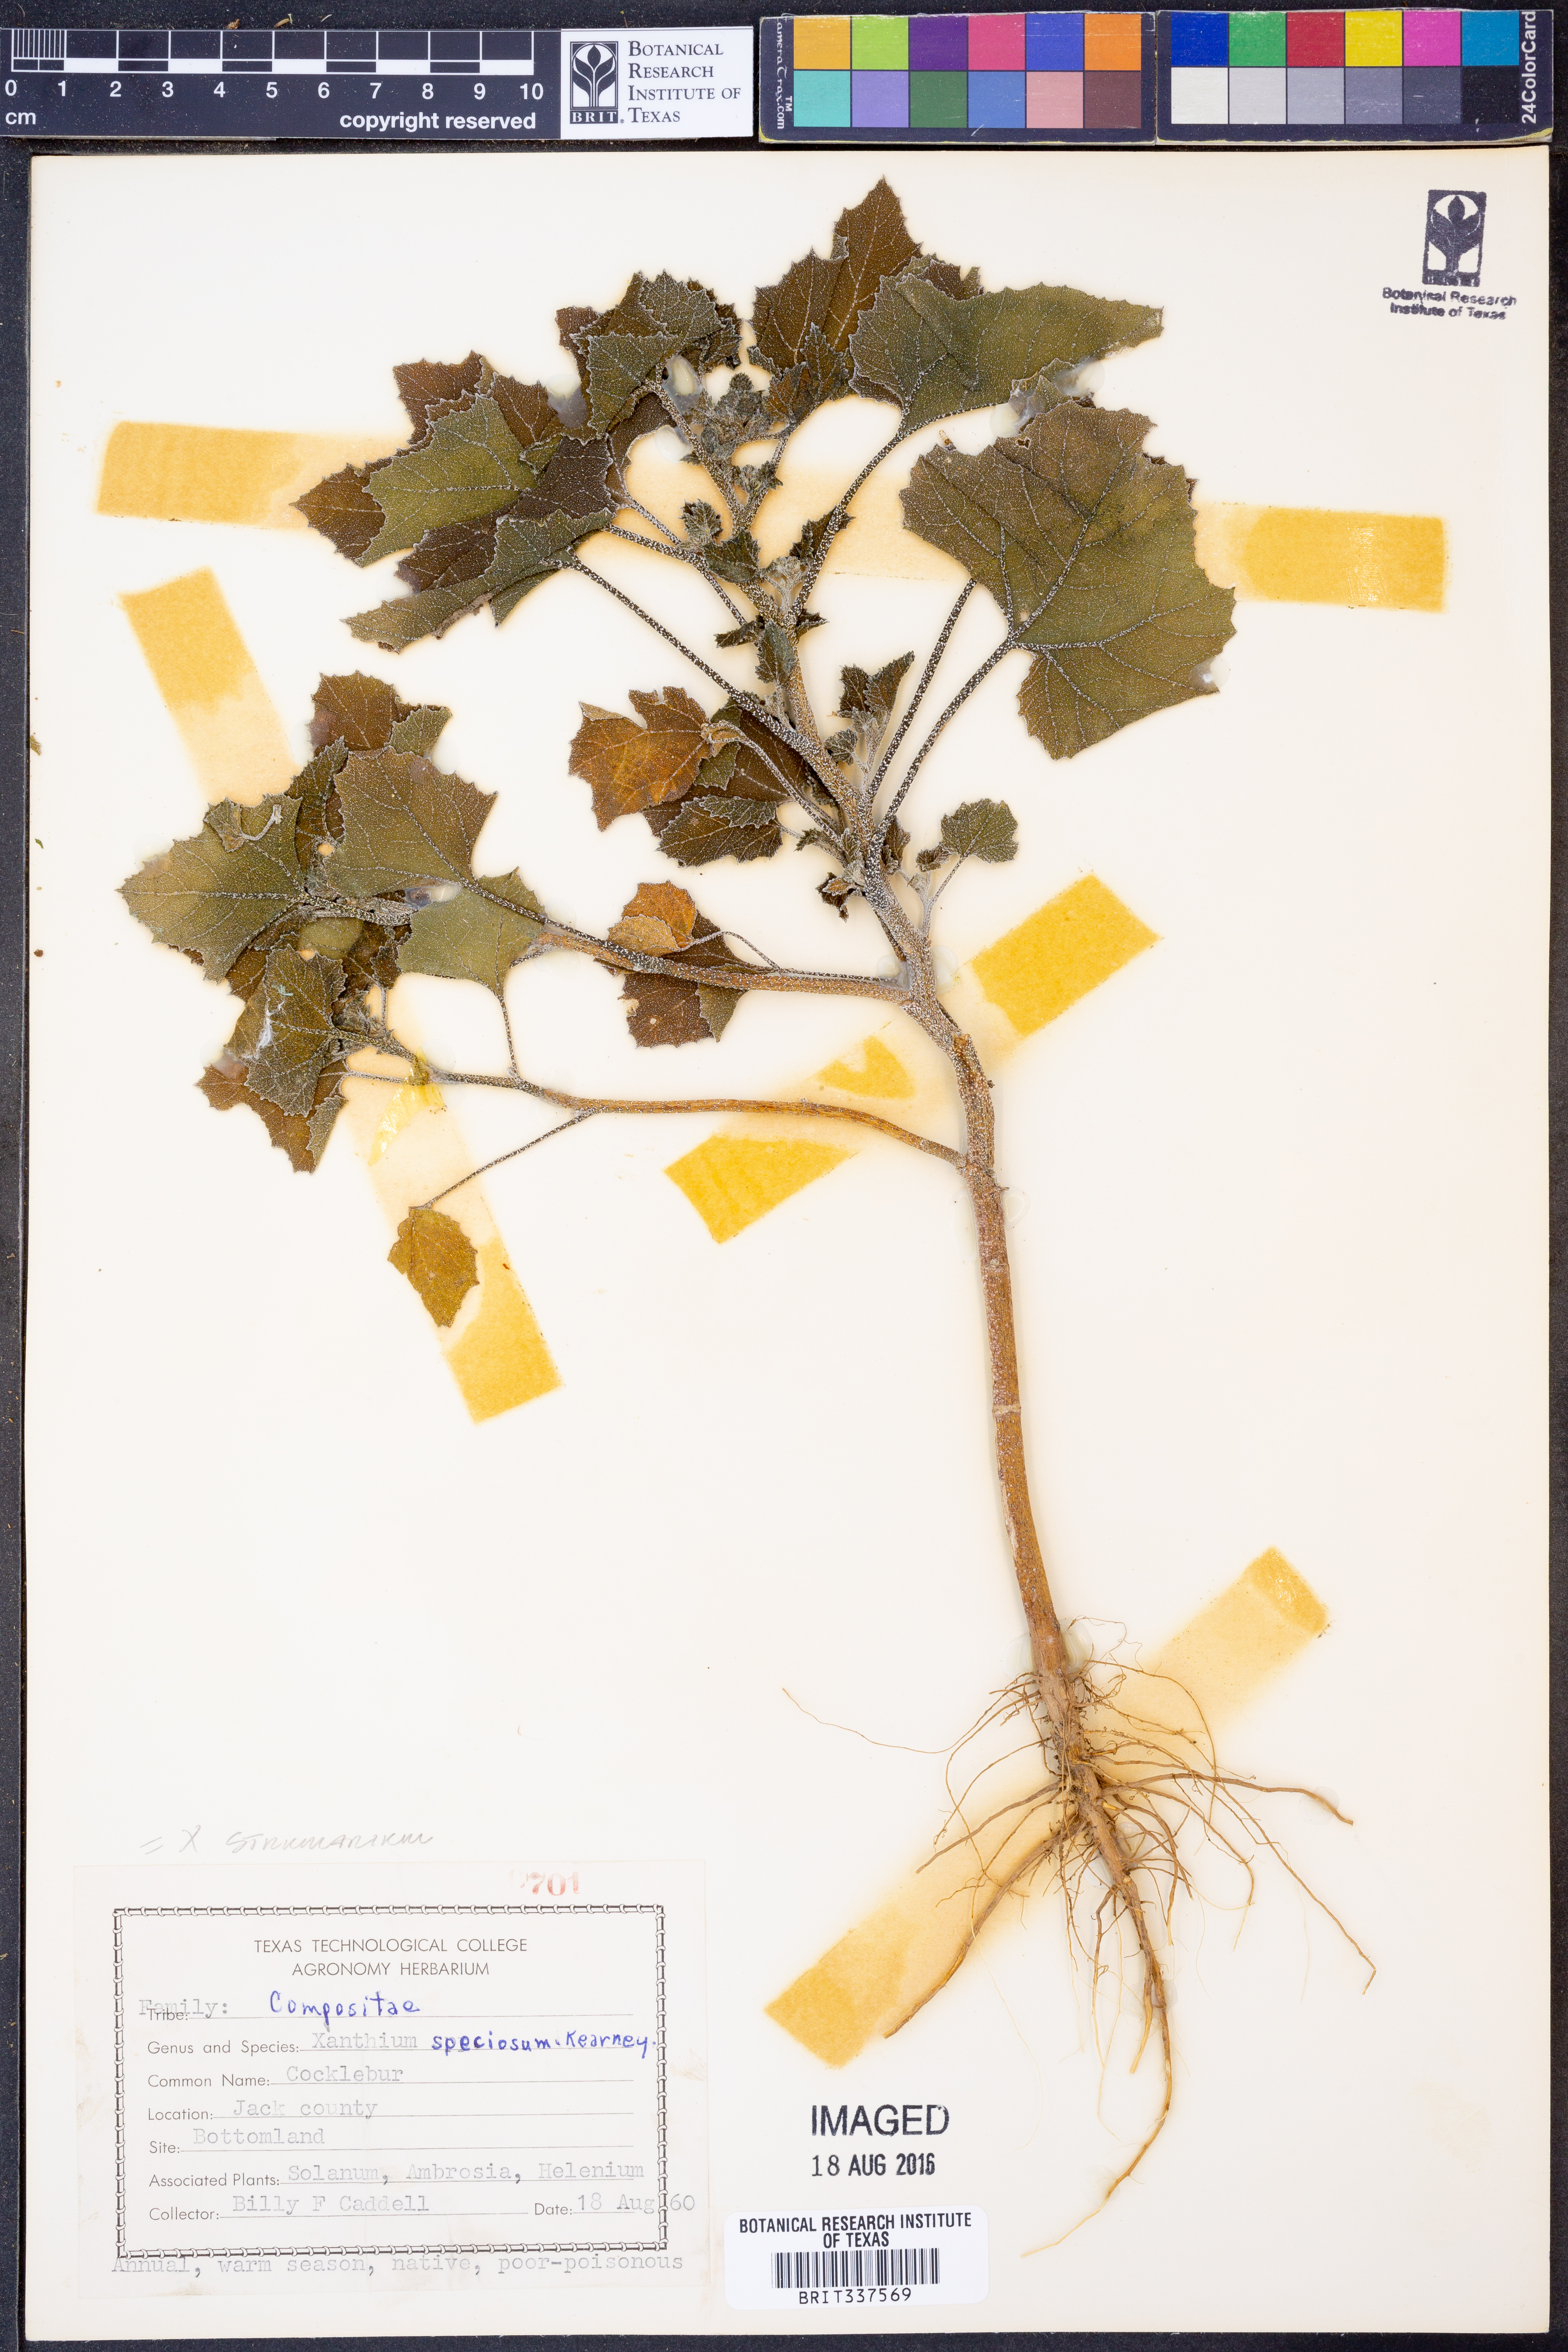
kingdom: Plantae
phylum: Tracheophyta
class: Magnoliopsida
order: Asterales
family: Asteraceae
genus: Xanthium
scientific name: Xanthium strumarium
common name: Rough cocklebur
